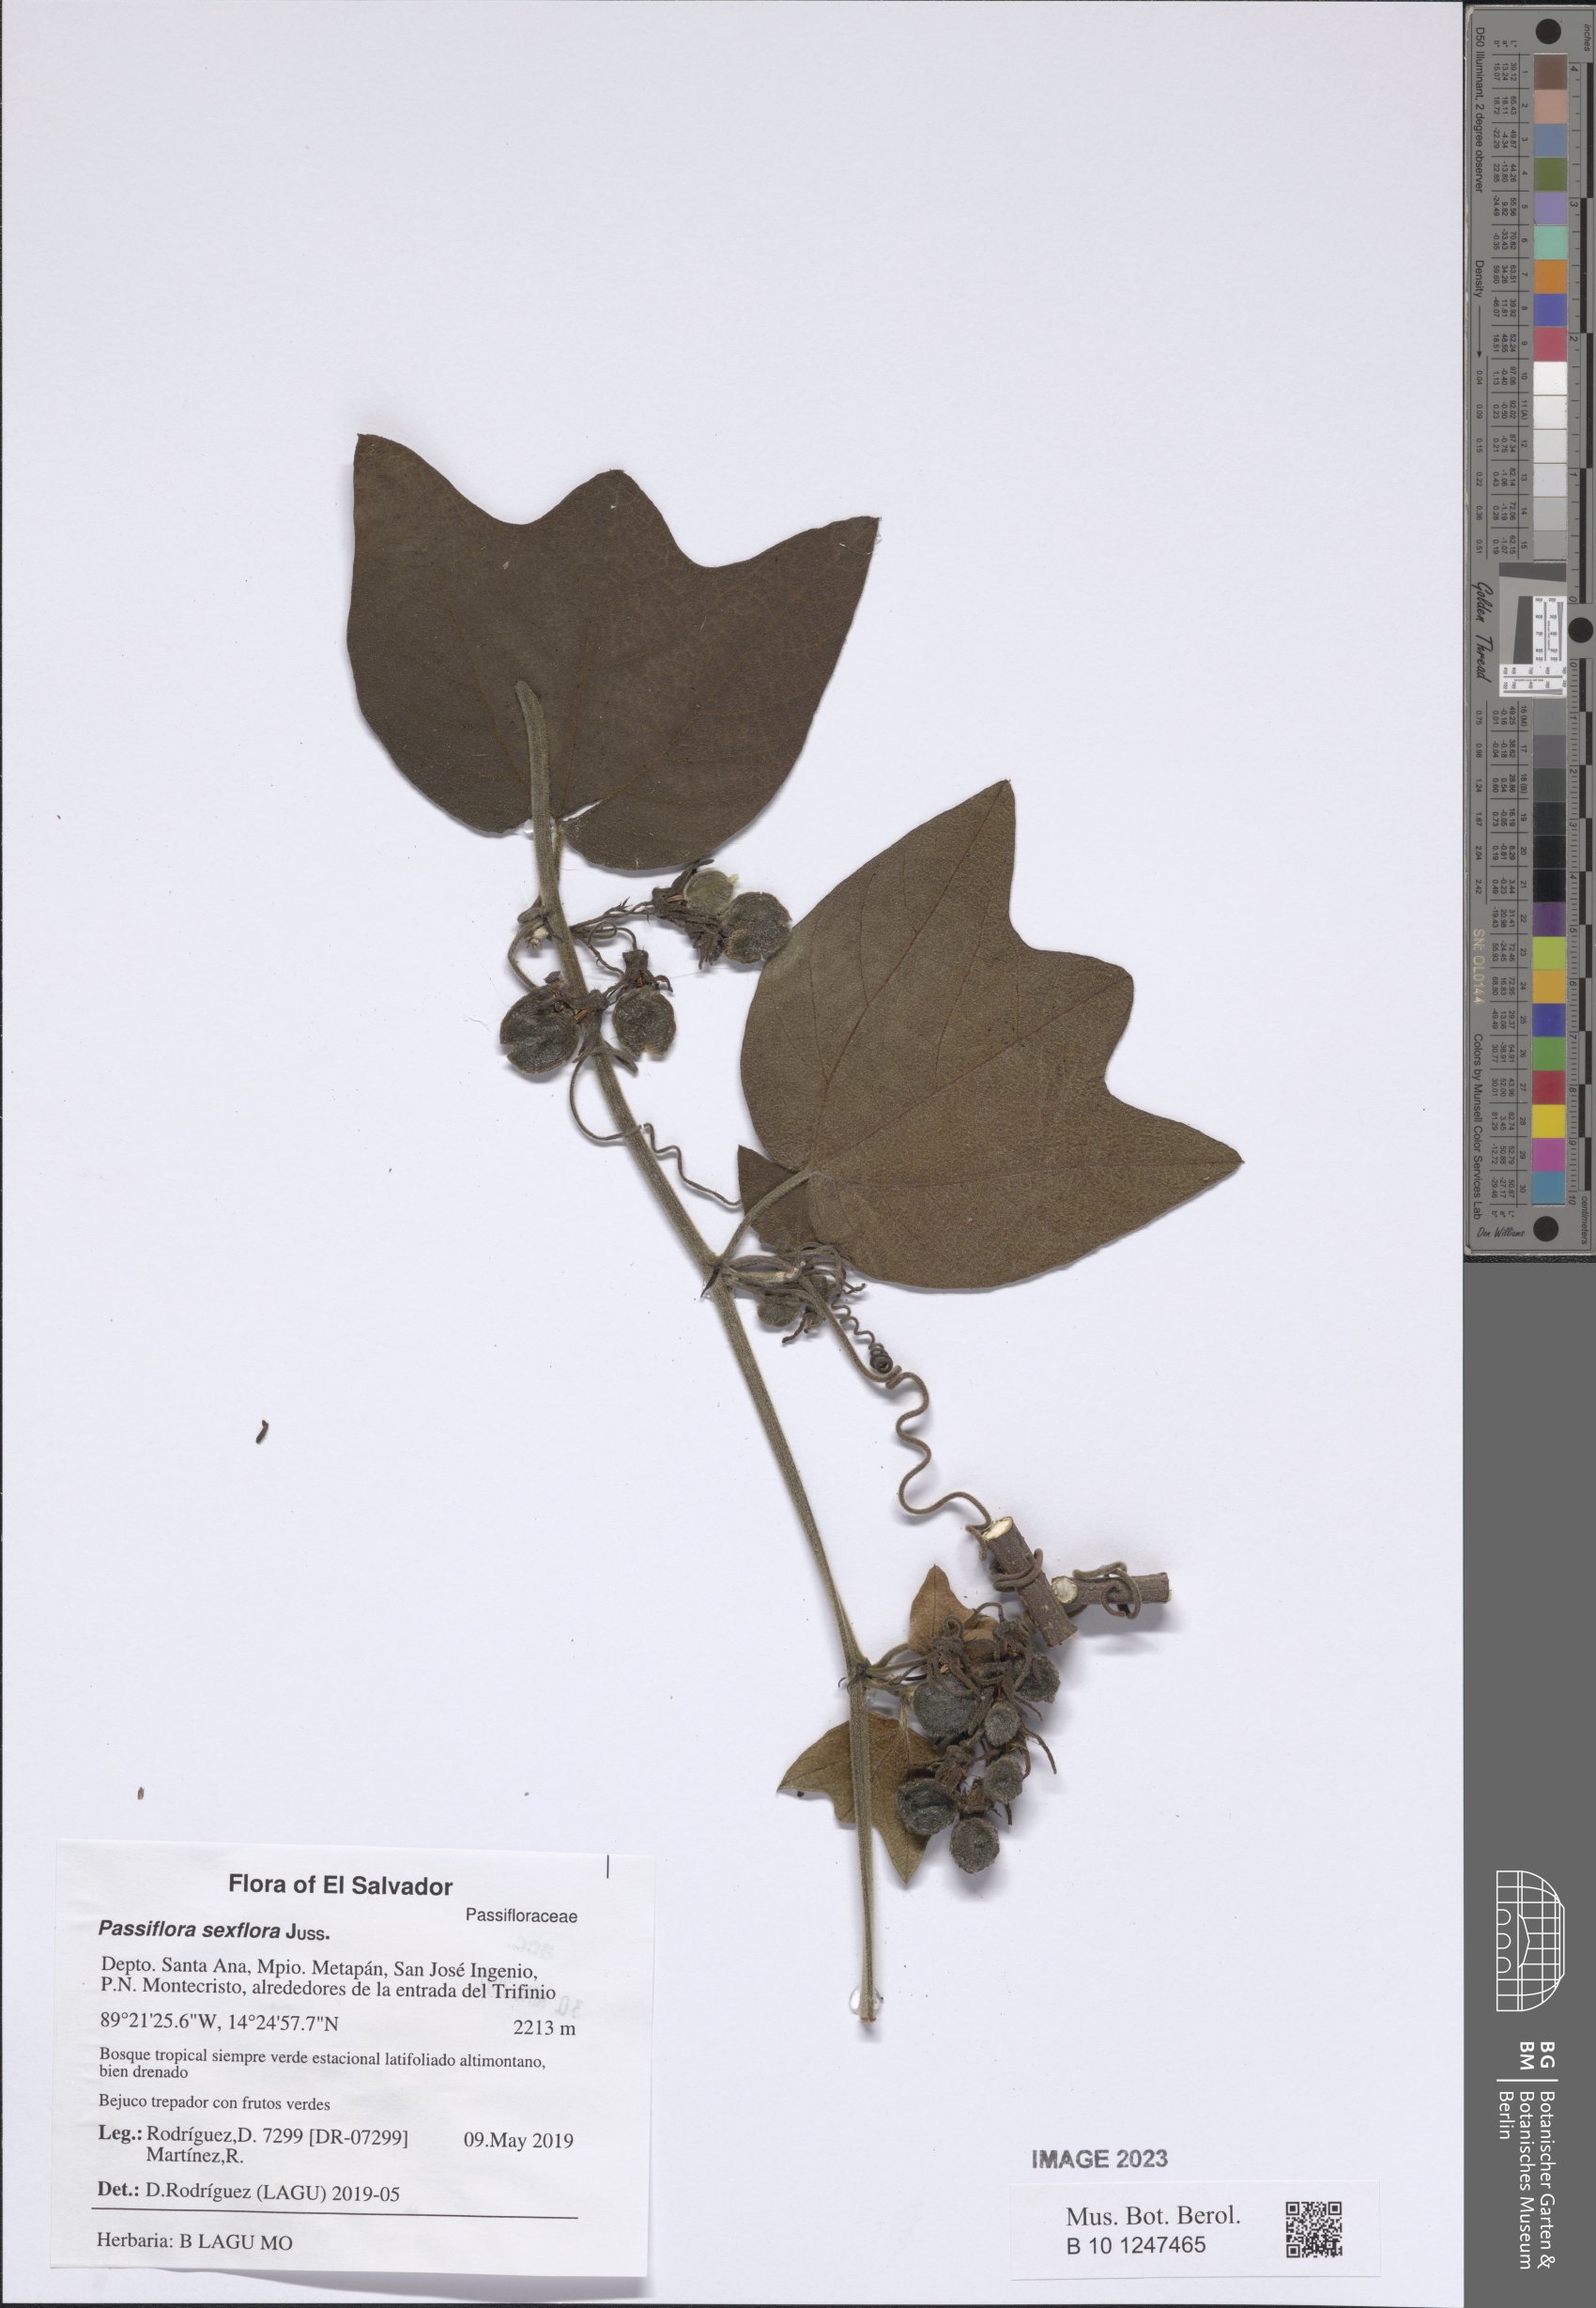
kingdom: Plantae
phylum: Tracheophyta
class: Magnoliopsida
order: Malpighiales
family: Passifloraceae
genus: Passiflora
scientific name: Passiflora sexflora
